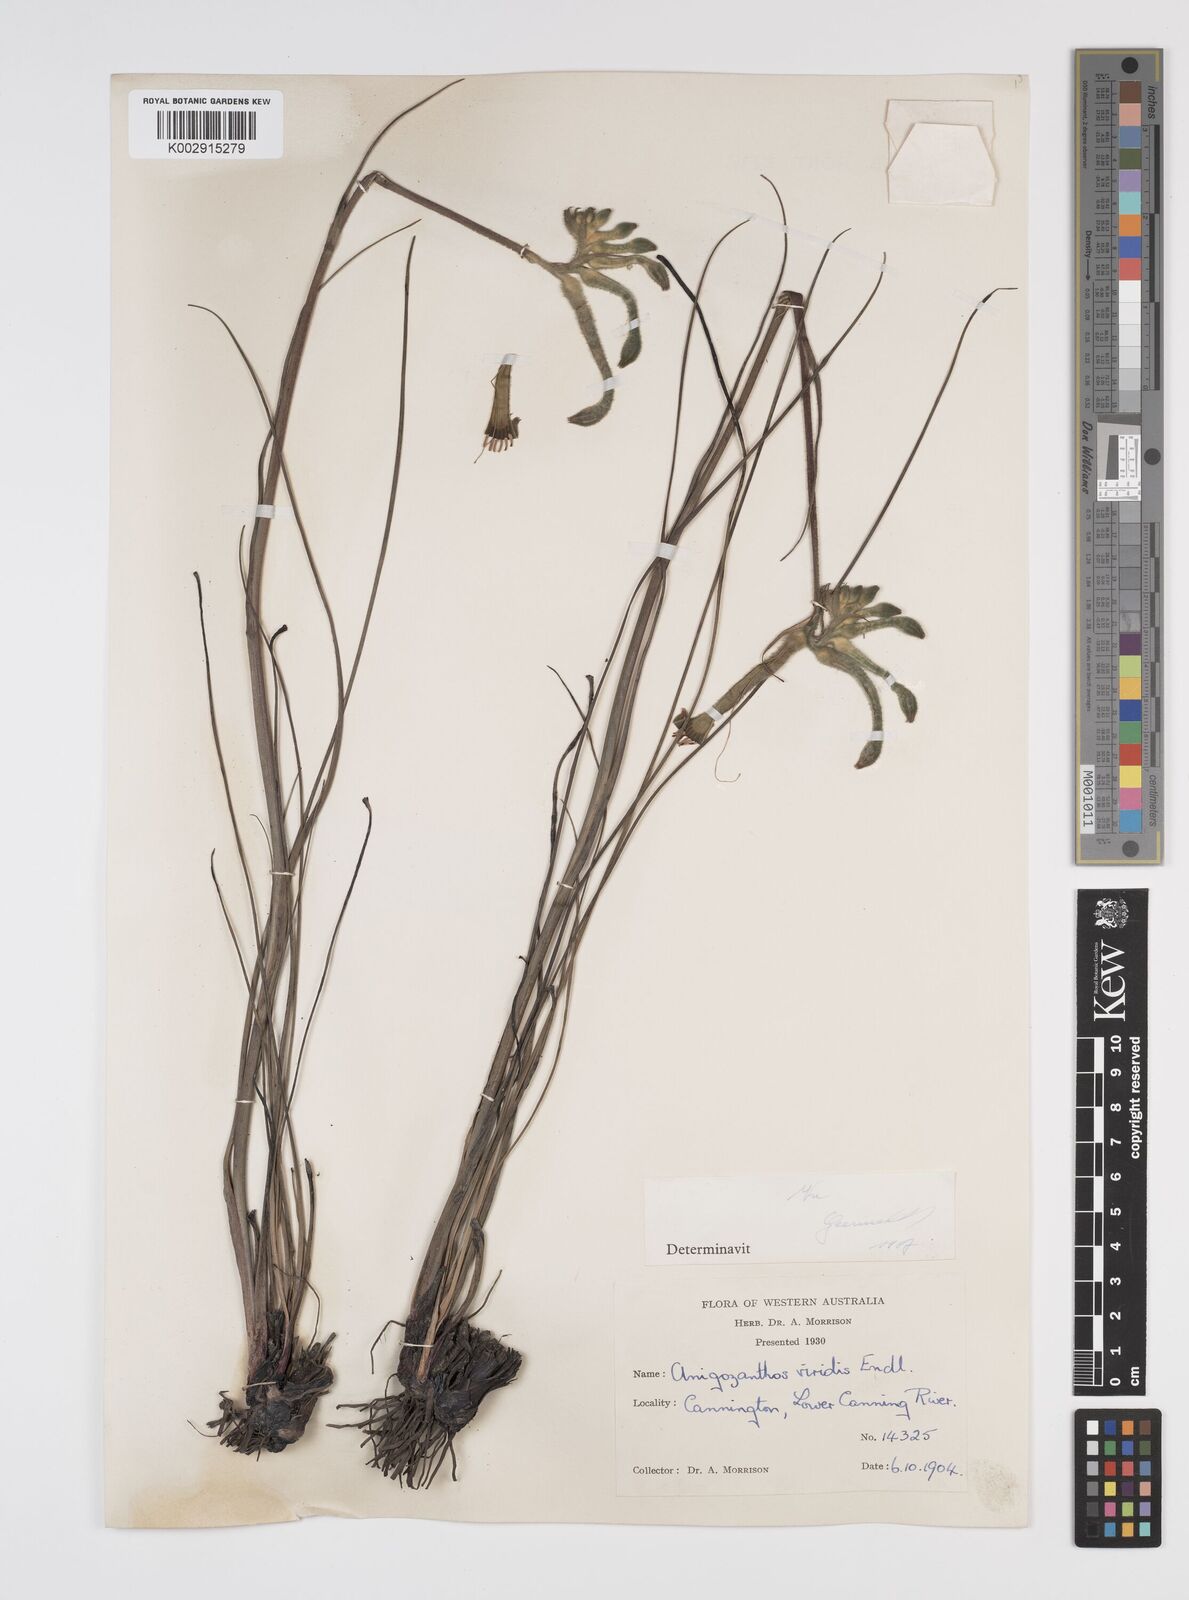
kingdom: Plantae
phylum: Tracheophyta
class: Liliopsida
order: Commelinales
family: Haemodoraceae
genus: Anigozanthos
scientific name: Anigozanthos viridis
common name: Green kangaroo-paw
